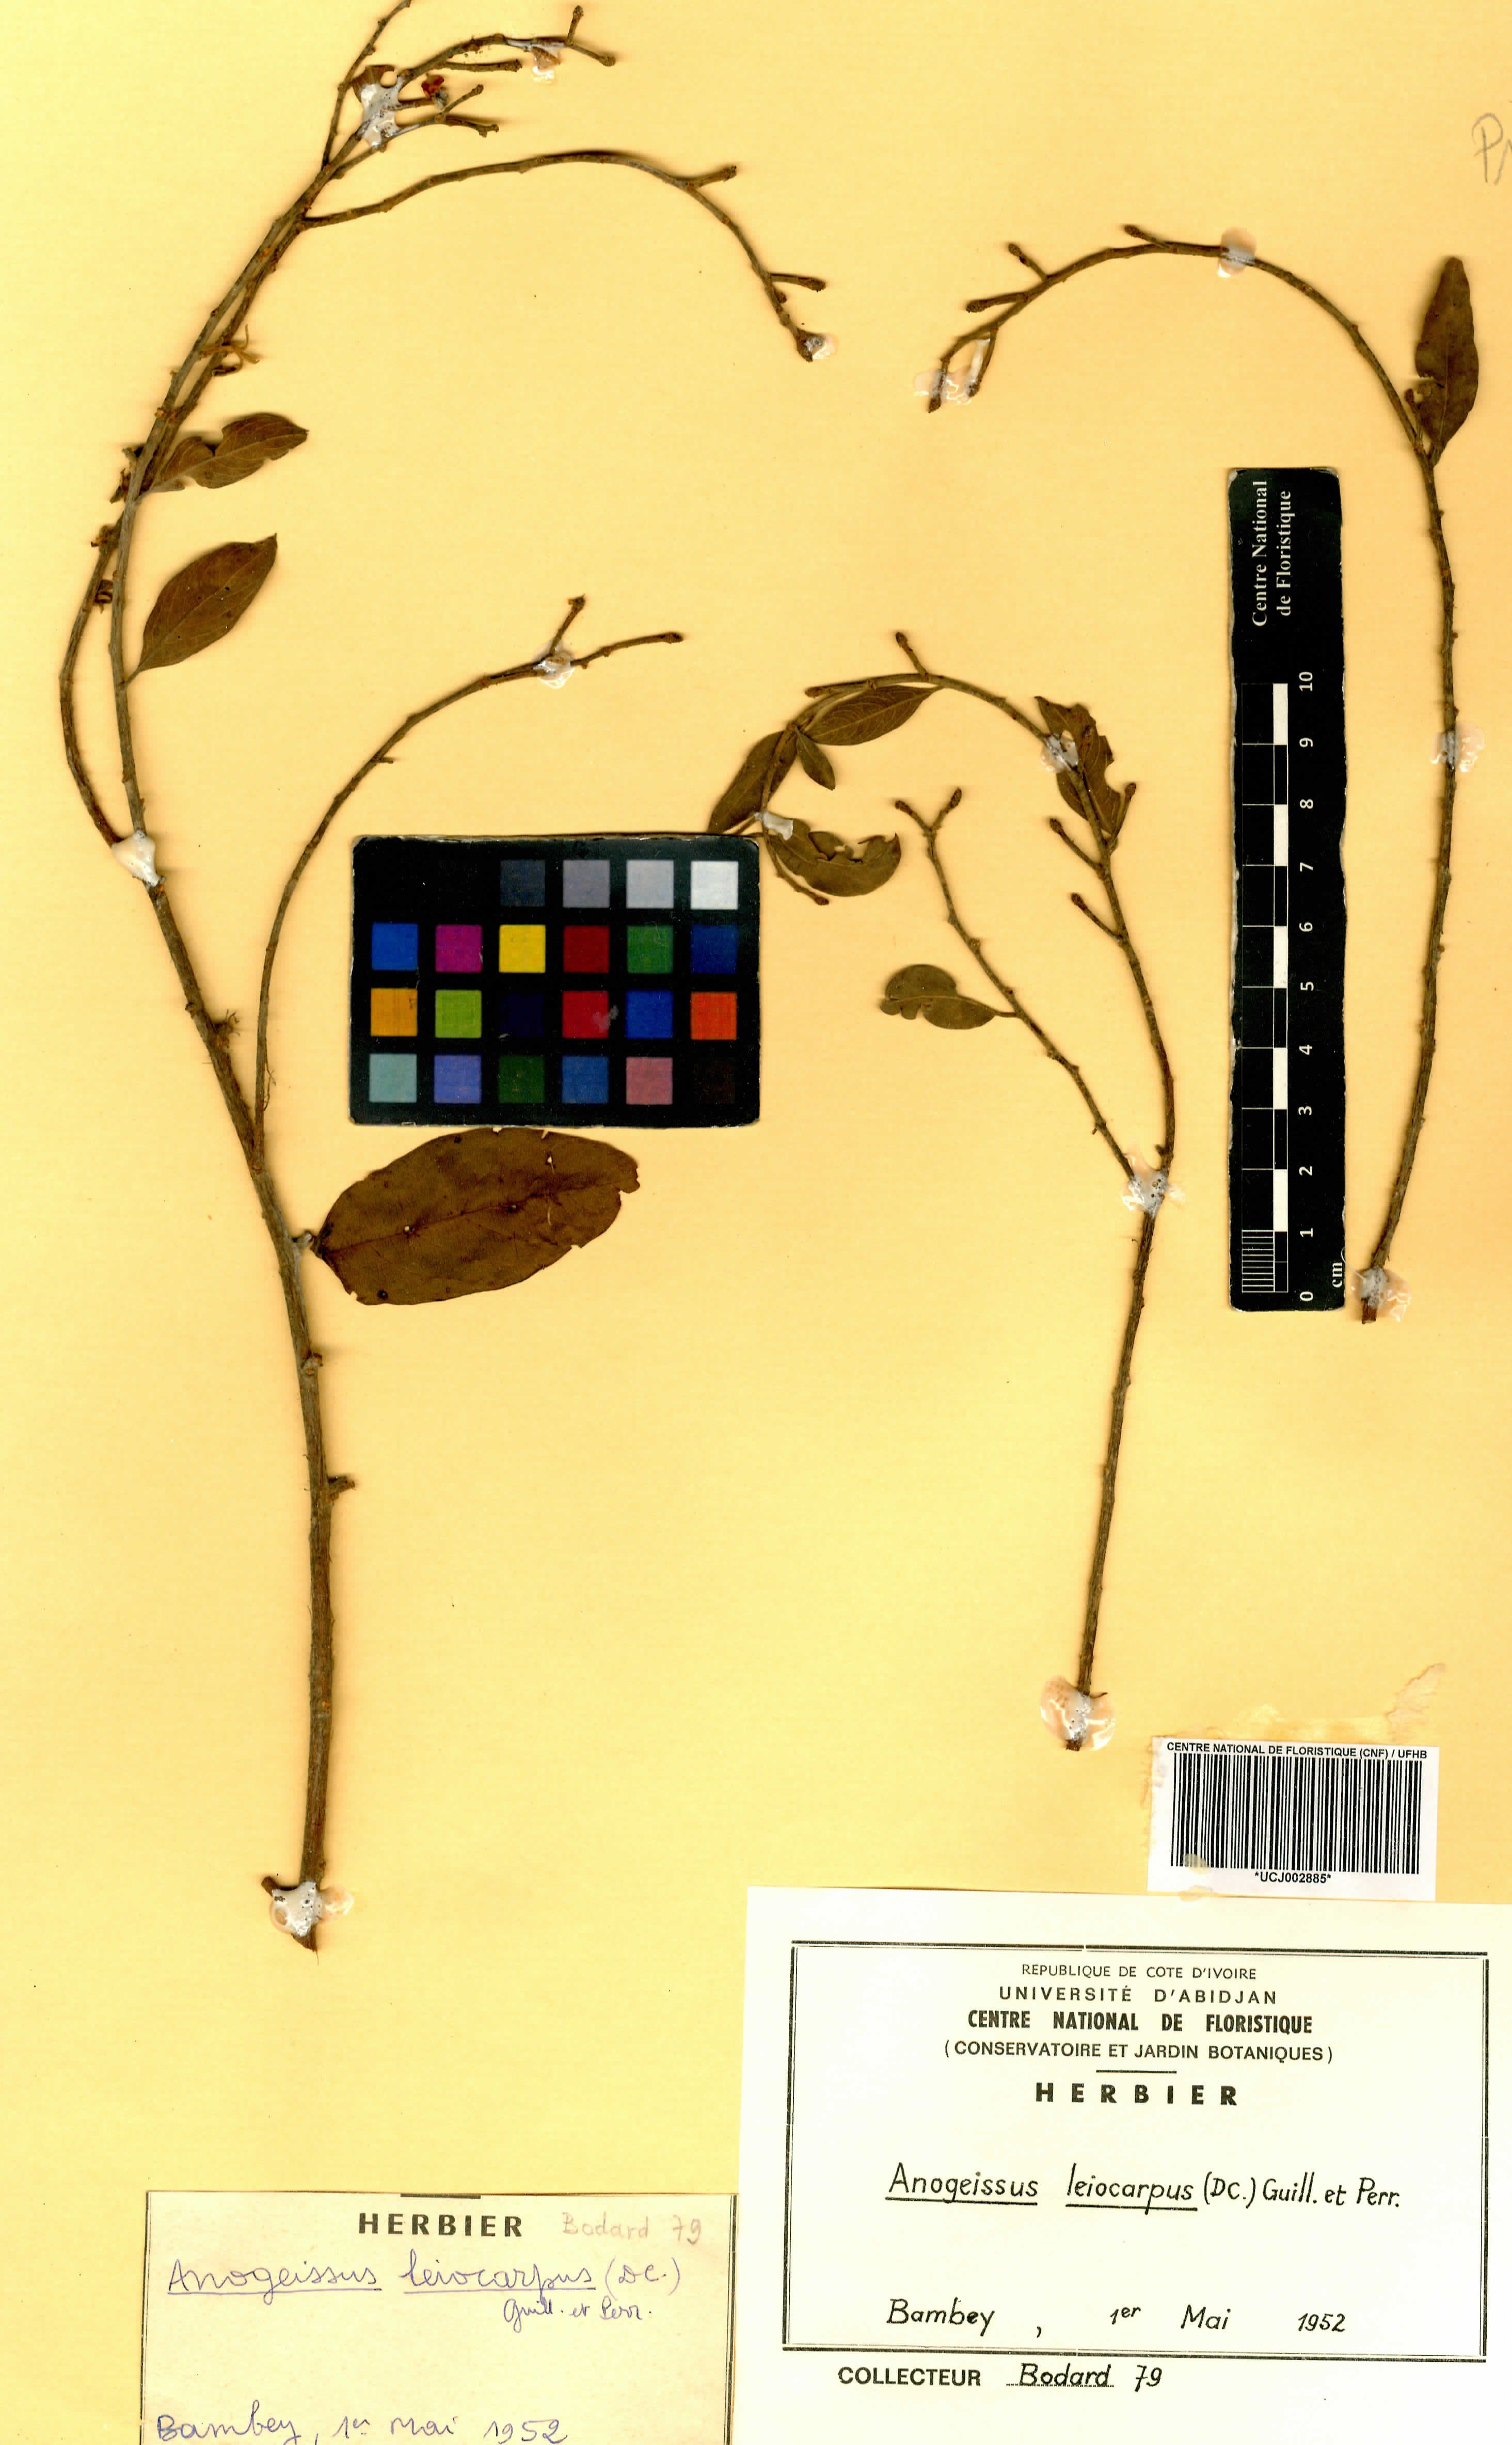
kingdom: Plantae
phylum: Tracheophyta
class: Magnoliopsida
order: Myrtales
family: Combretaceae
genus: Terminalia
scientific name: Terminalia leiocarpa
